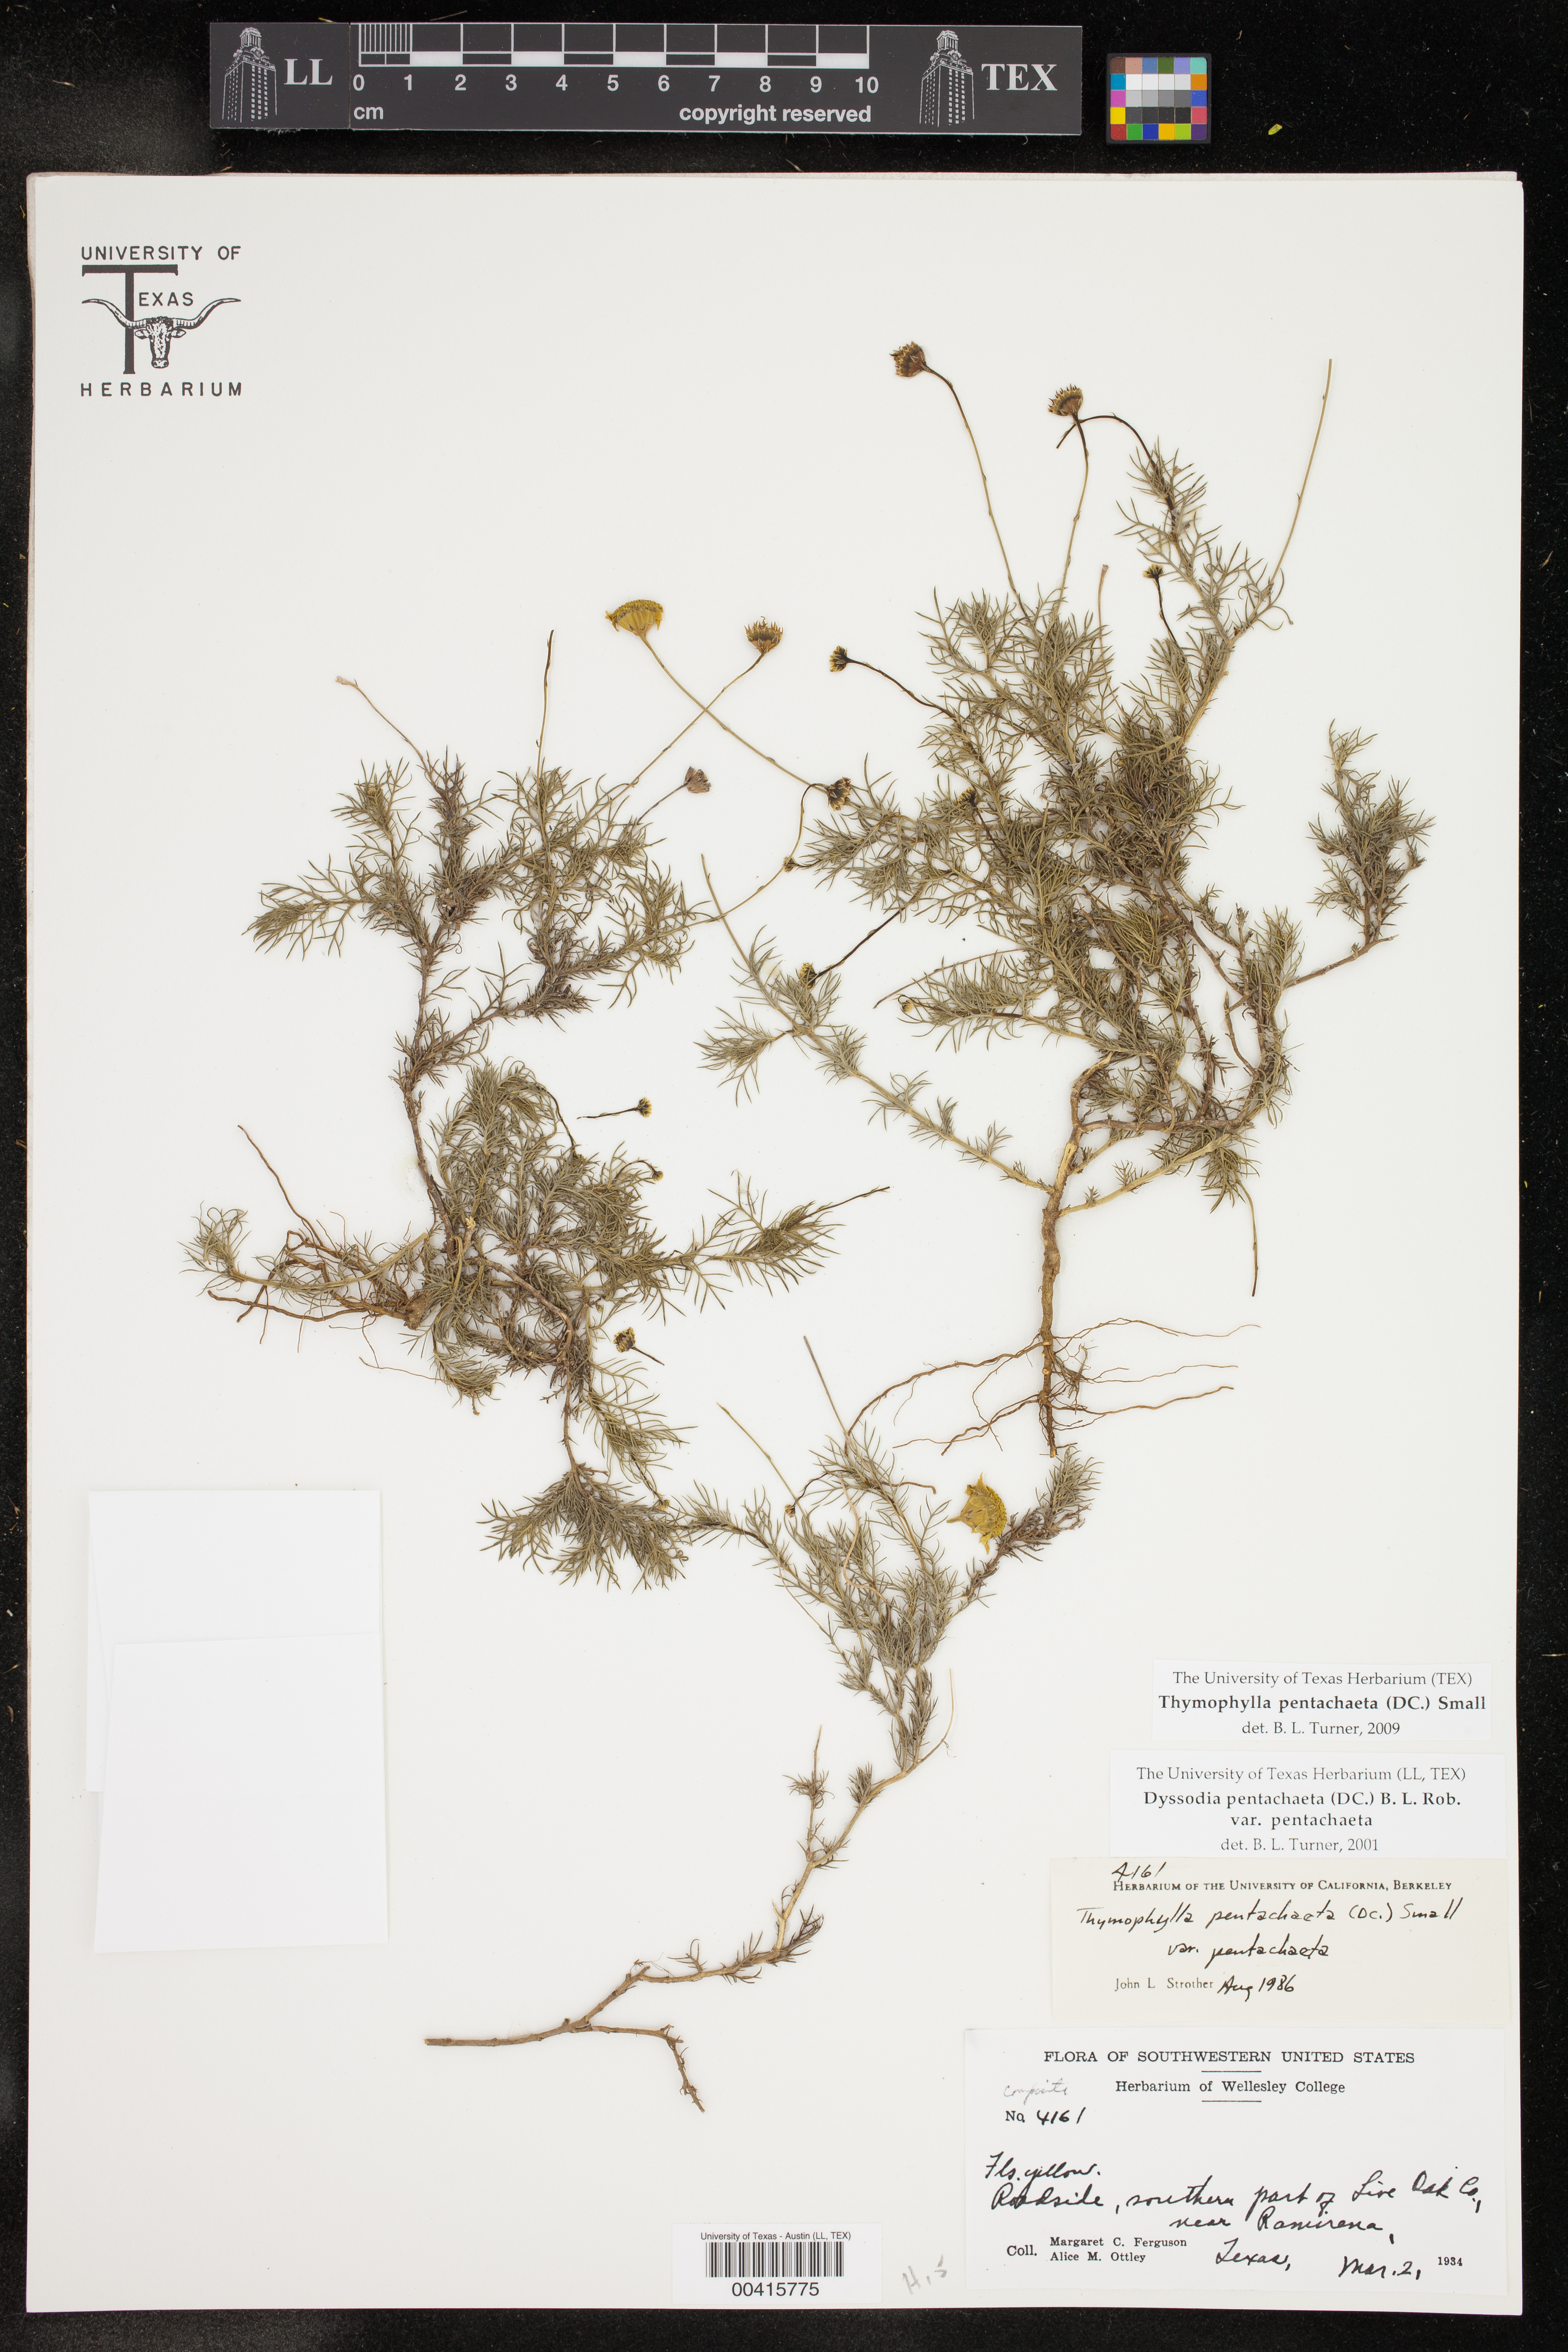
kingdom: Plantae
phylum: Tracheophyta
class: Magnoliopsida
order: Asterales
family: Asteraceae
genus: Thymophylla
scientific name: Thymophylla pentachaeta
